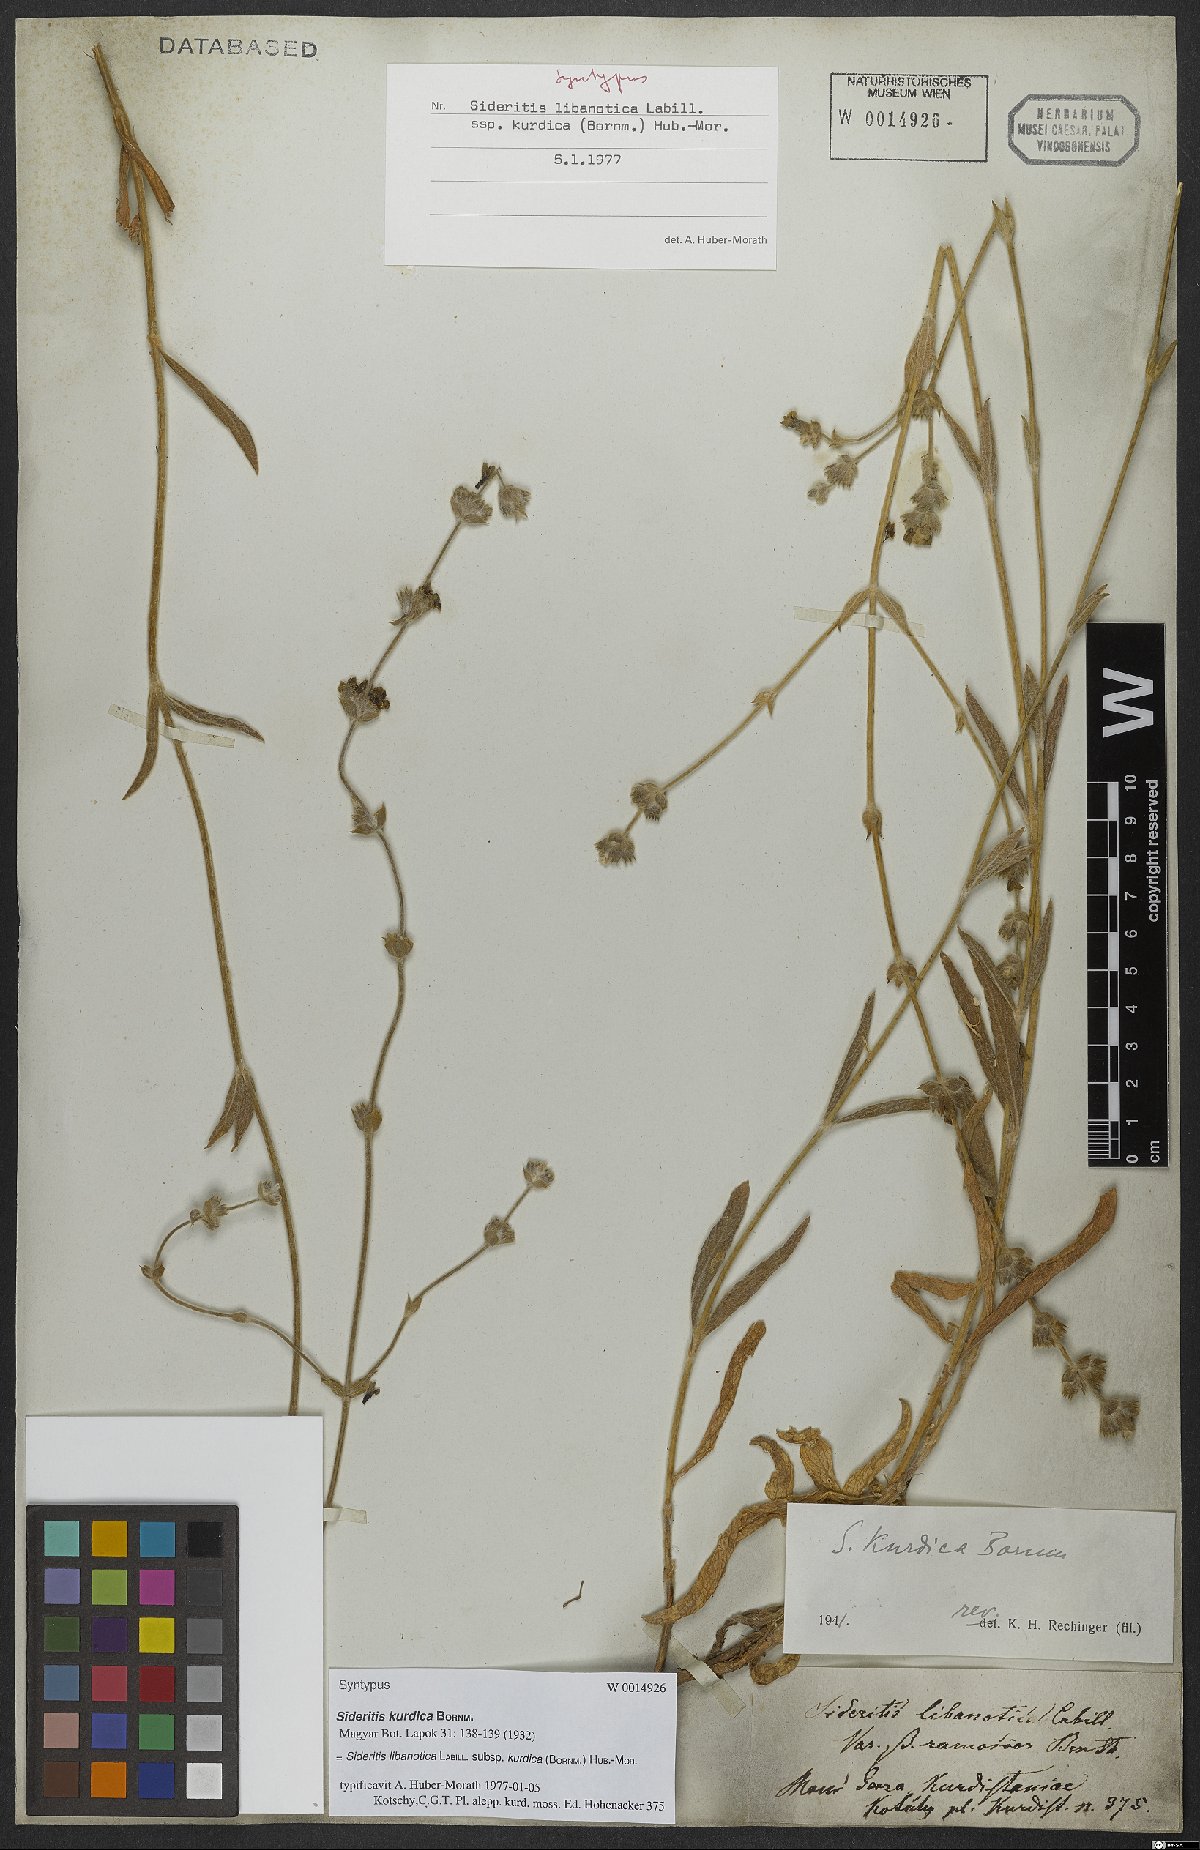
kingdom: Plantae
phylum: Tracheophyta
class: Magnoliopsida
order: Lamiales
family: Lamiaceae
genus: Sideritis
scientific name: Sideritis libanotica
